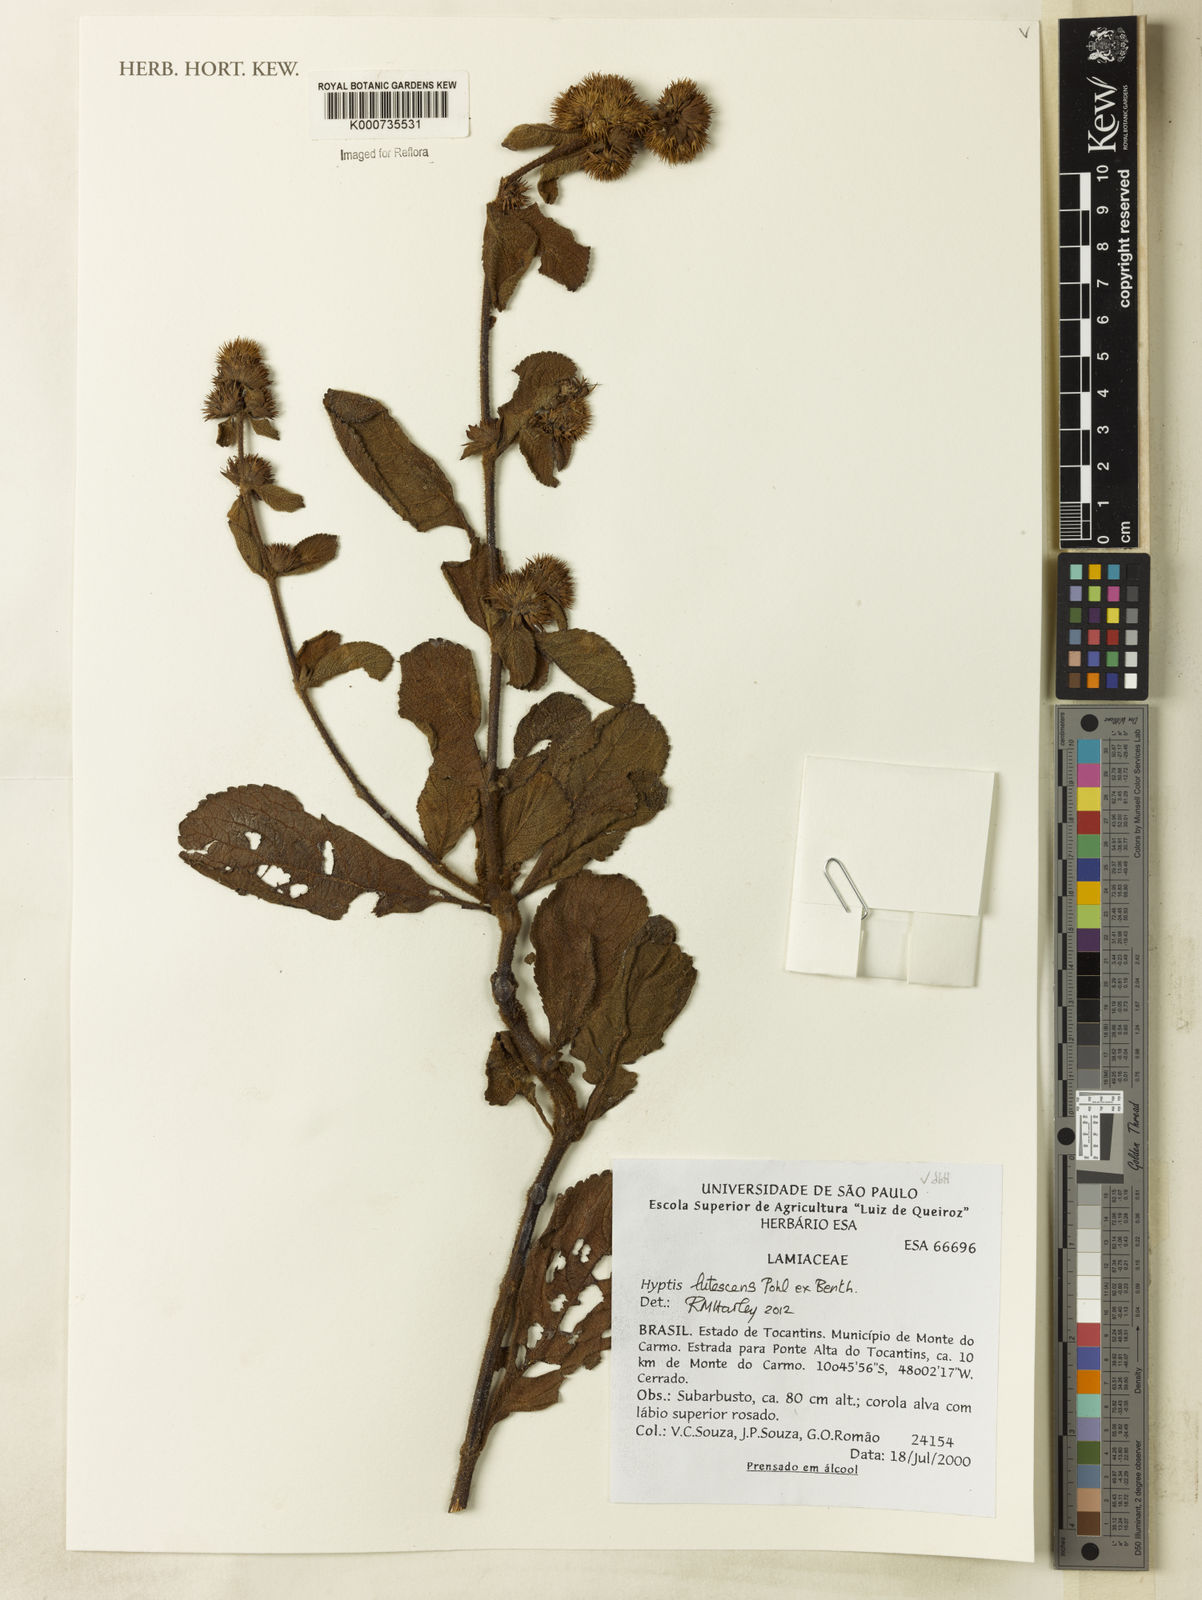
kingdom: Plantae
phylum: Tracheophyta
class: Magnoliopsida
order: Lamiales
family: Lamiaceae
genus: Hyptis
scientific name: Hyptis lutescens
